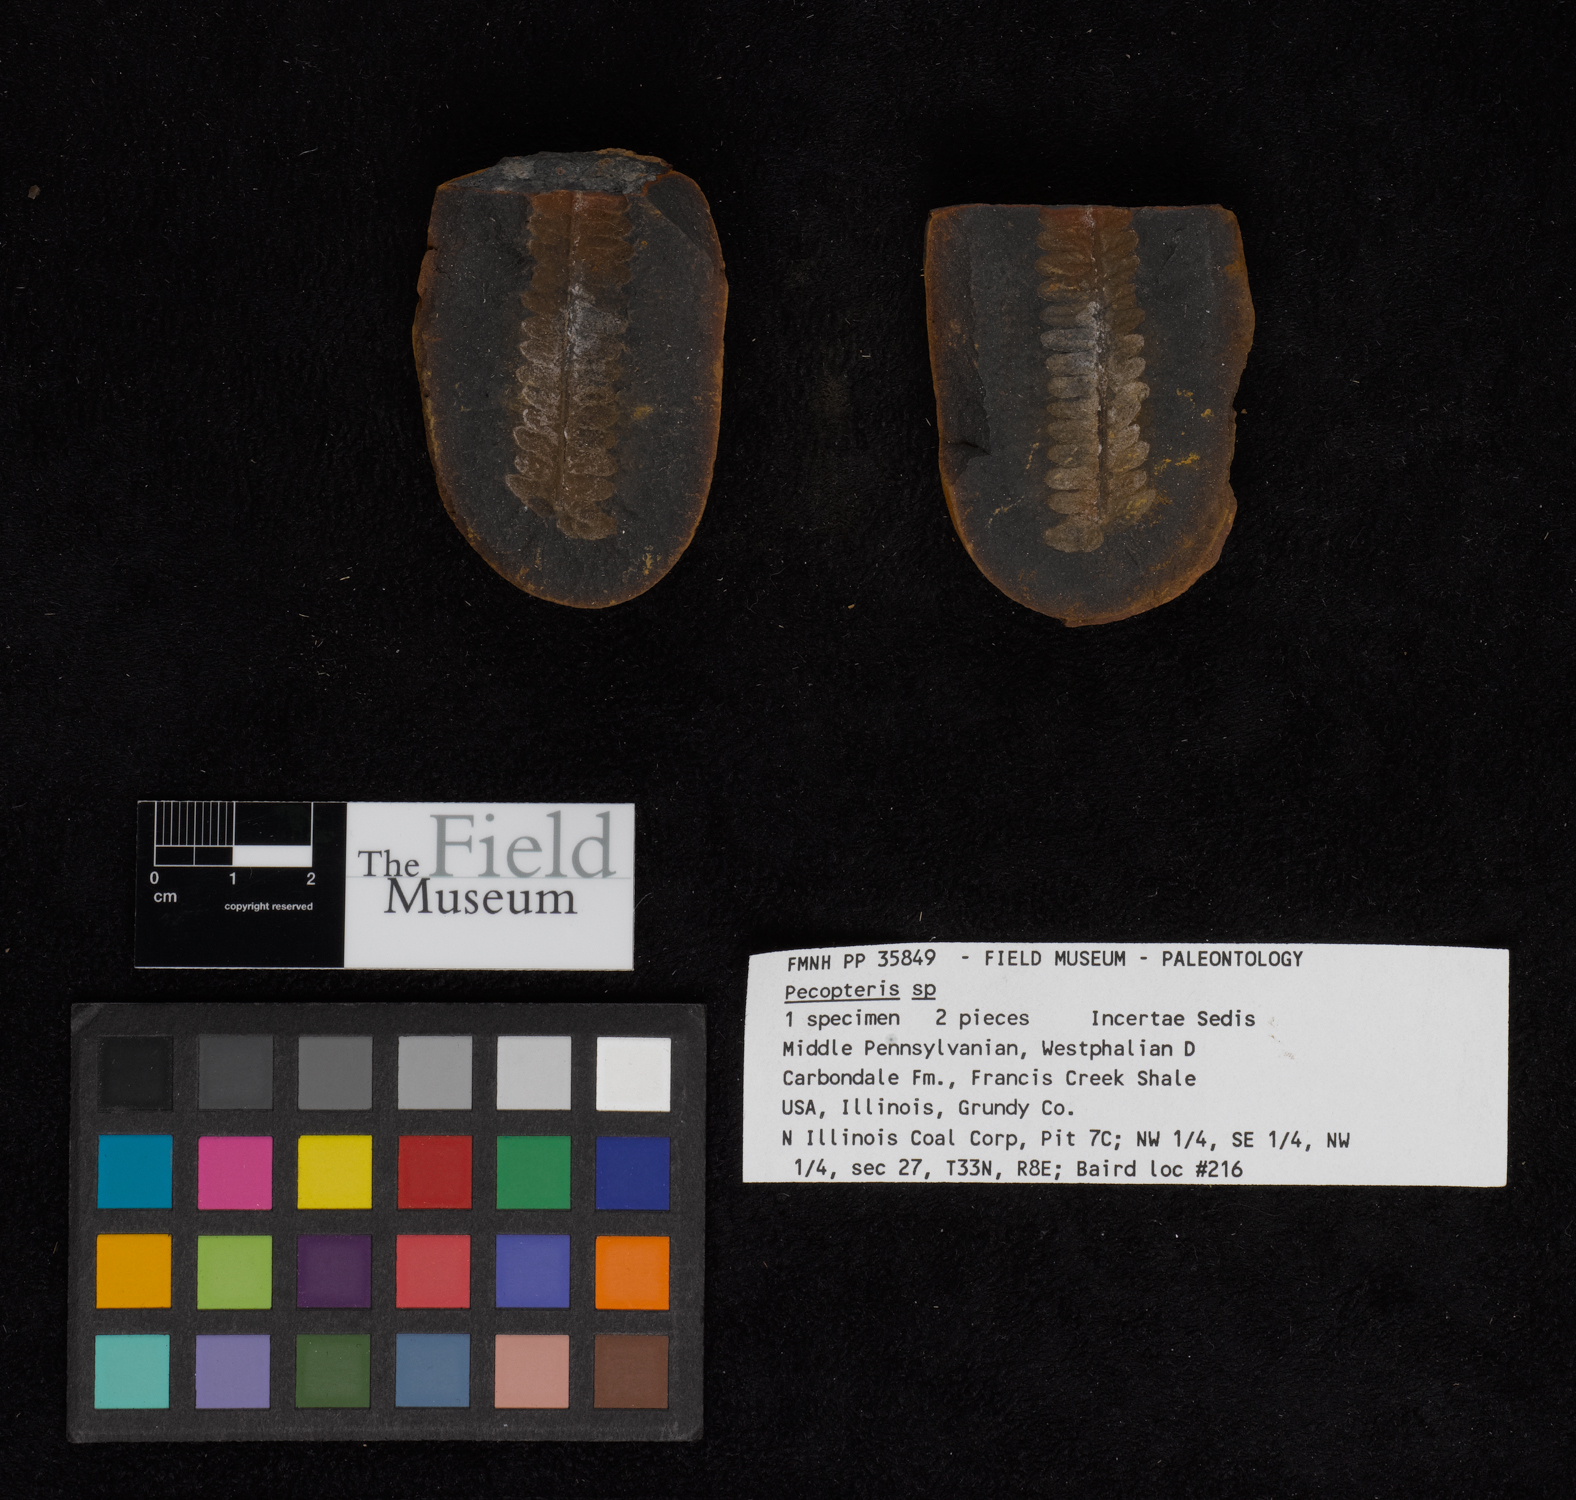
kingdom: Plantae
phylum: Tracheophyta
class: Polypodiopsida
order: Marattiales
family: Asterothecaceae
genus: Pecopteris
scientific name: Pecopteris
